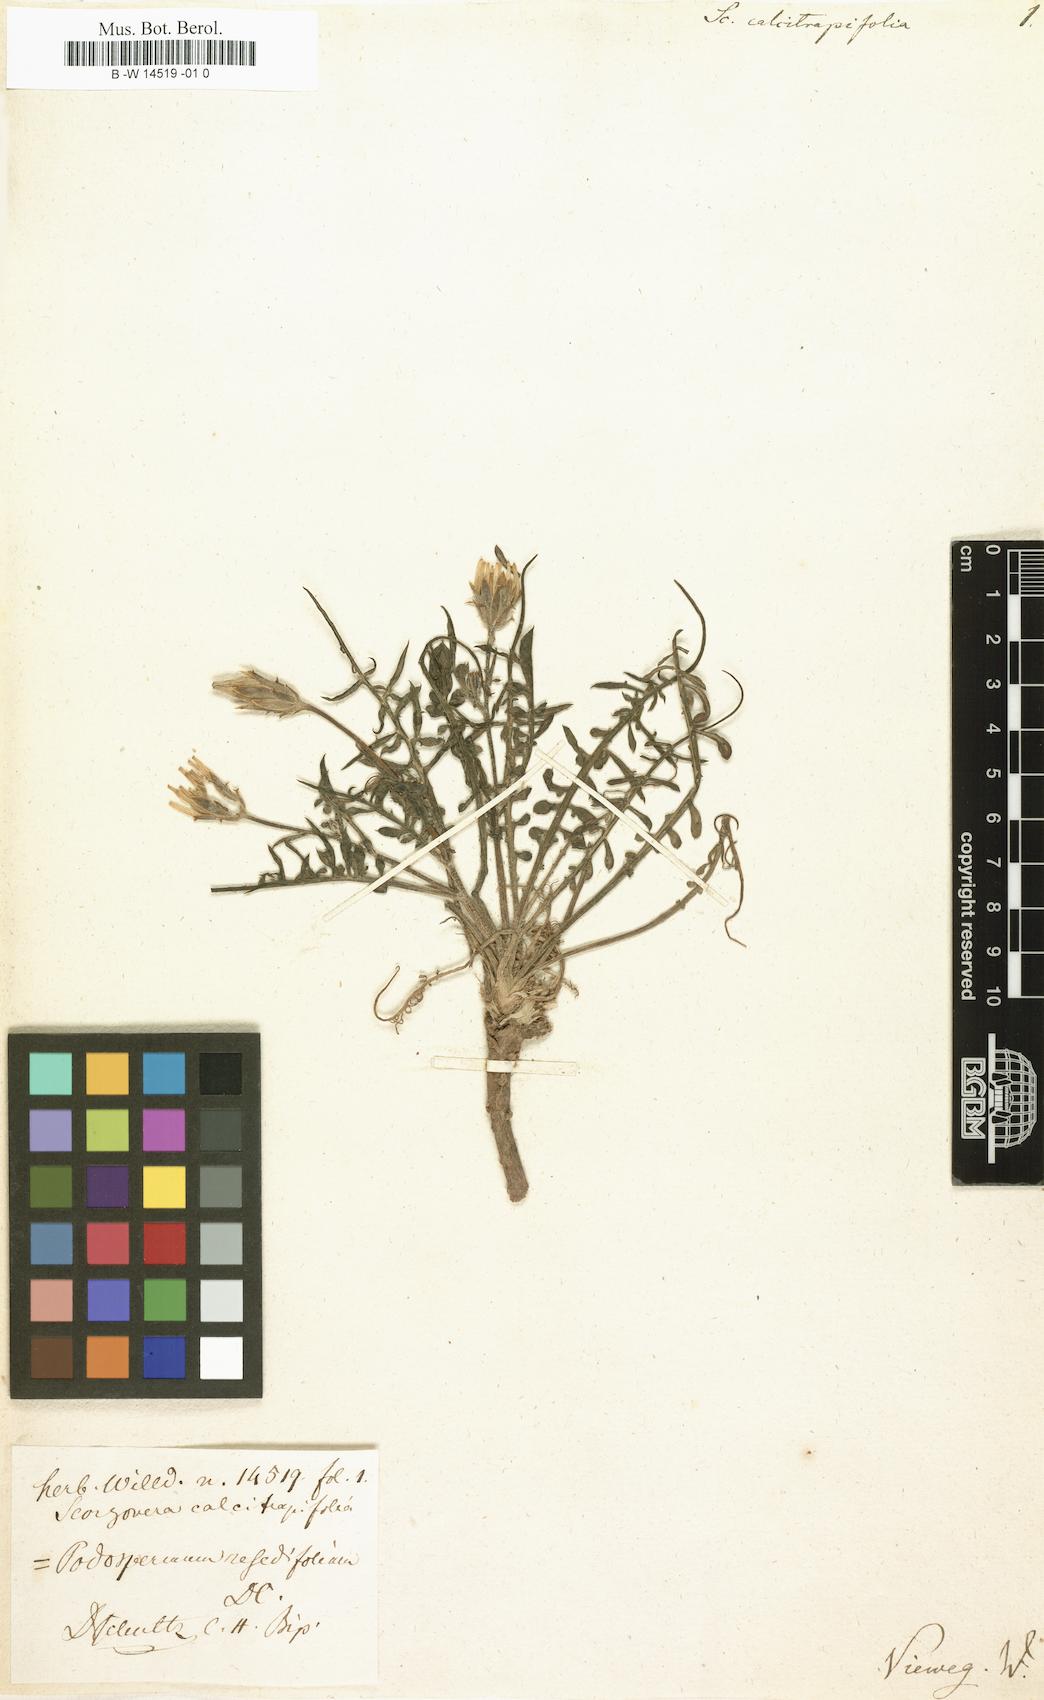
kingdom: Plantae
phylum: Tracheophyta
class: Magnoliopsida
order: Asterales
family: Asteraceae
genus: Scorzonera
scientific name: Scorzonera calcitrapifolia
